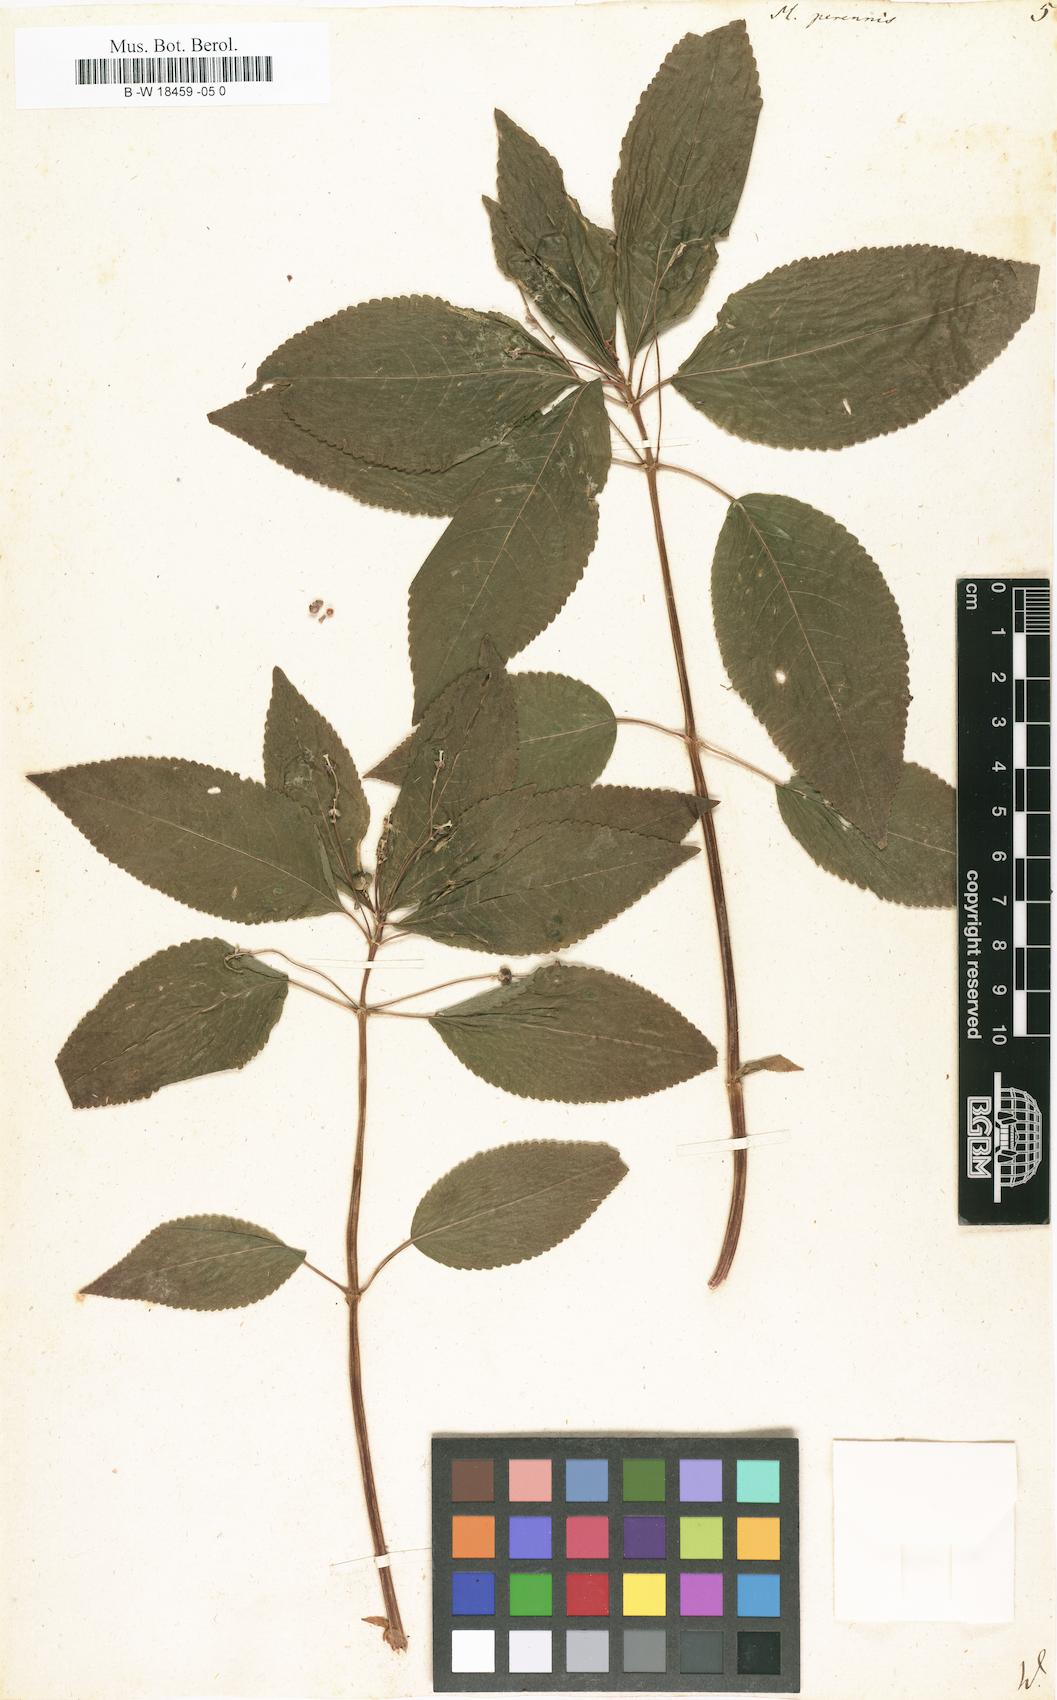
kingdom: Plantae
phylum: Tracheophyta
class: Magnoliopsida
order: Malpighiales
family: Euphorbiaceae
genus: Mercurialis
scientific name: Mercurialis perennis
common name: Dog mercury
